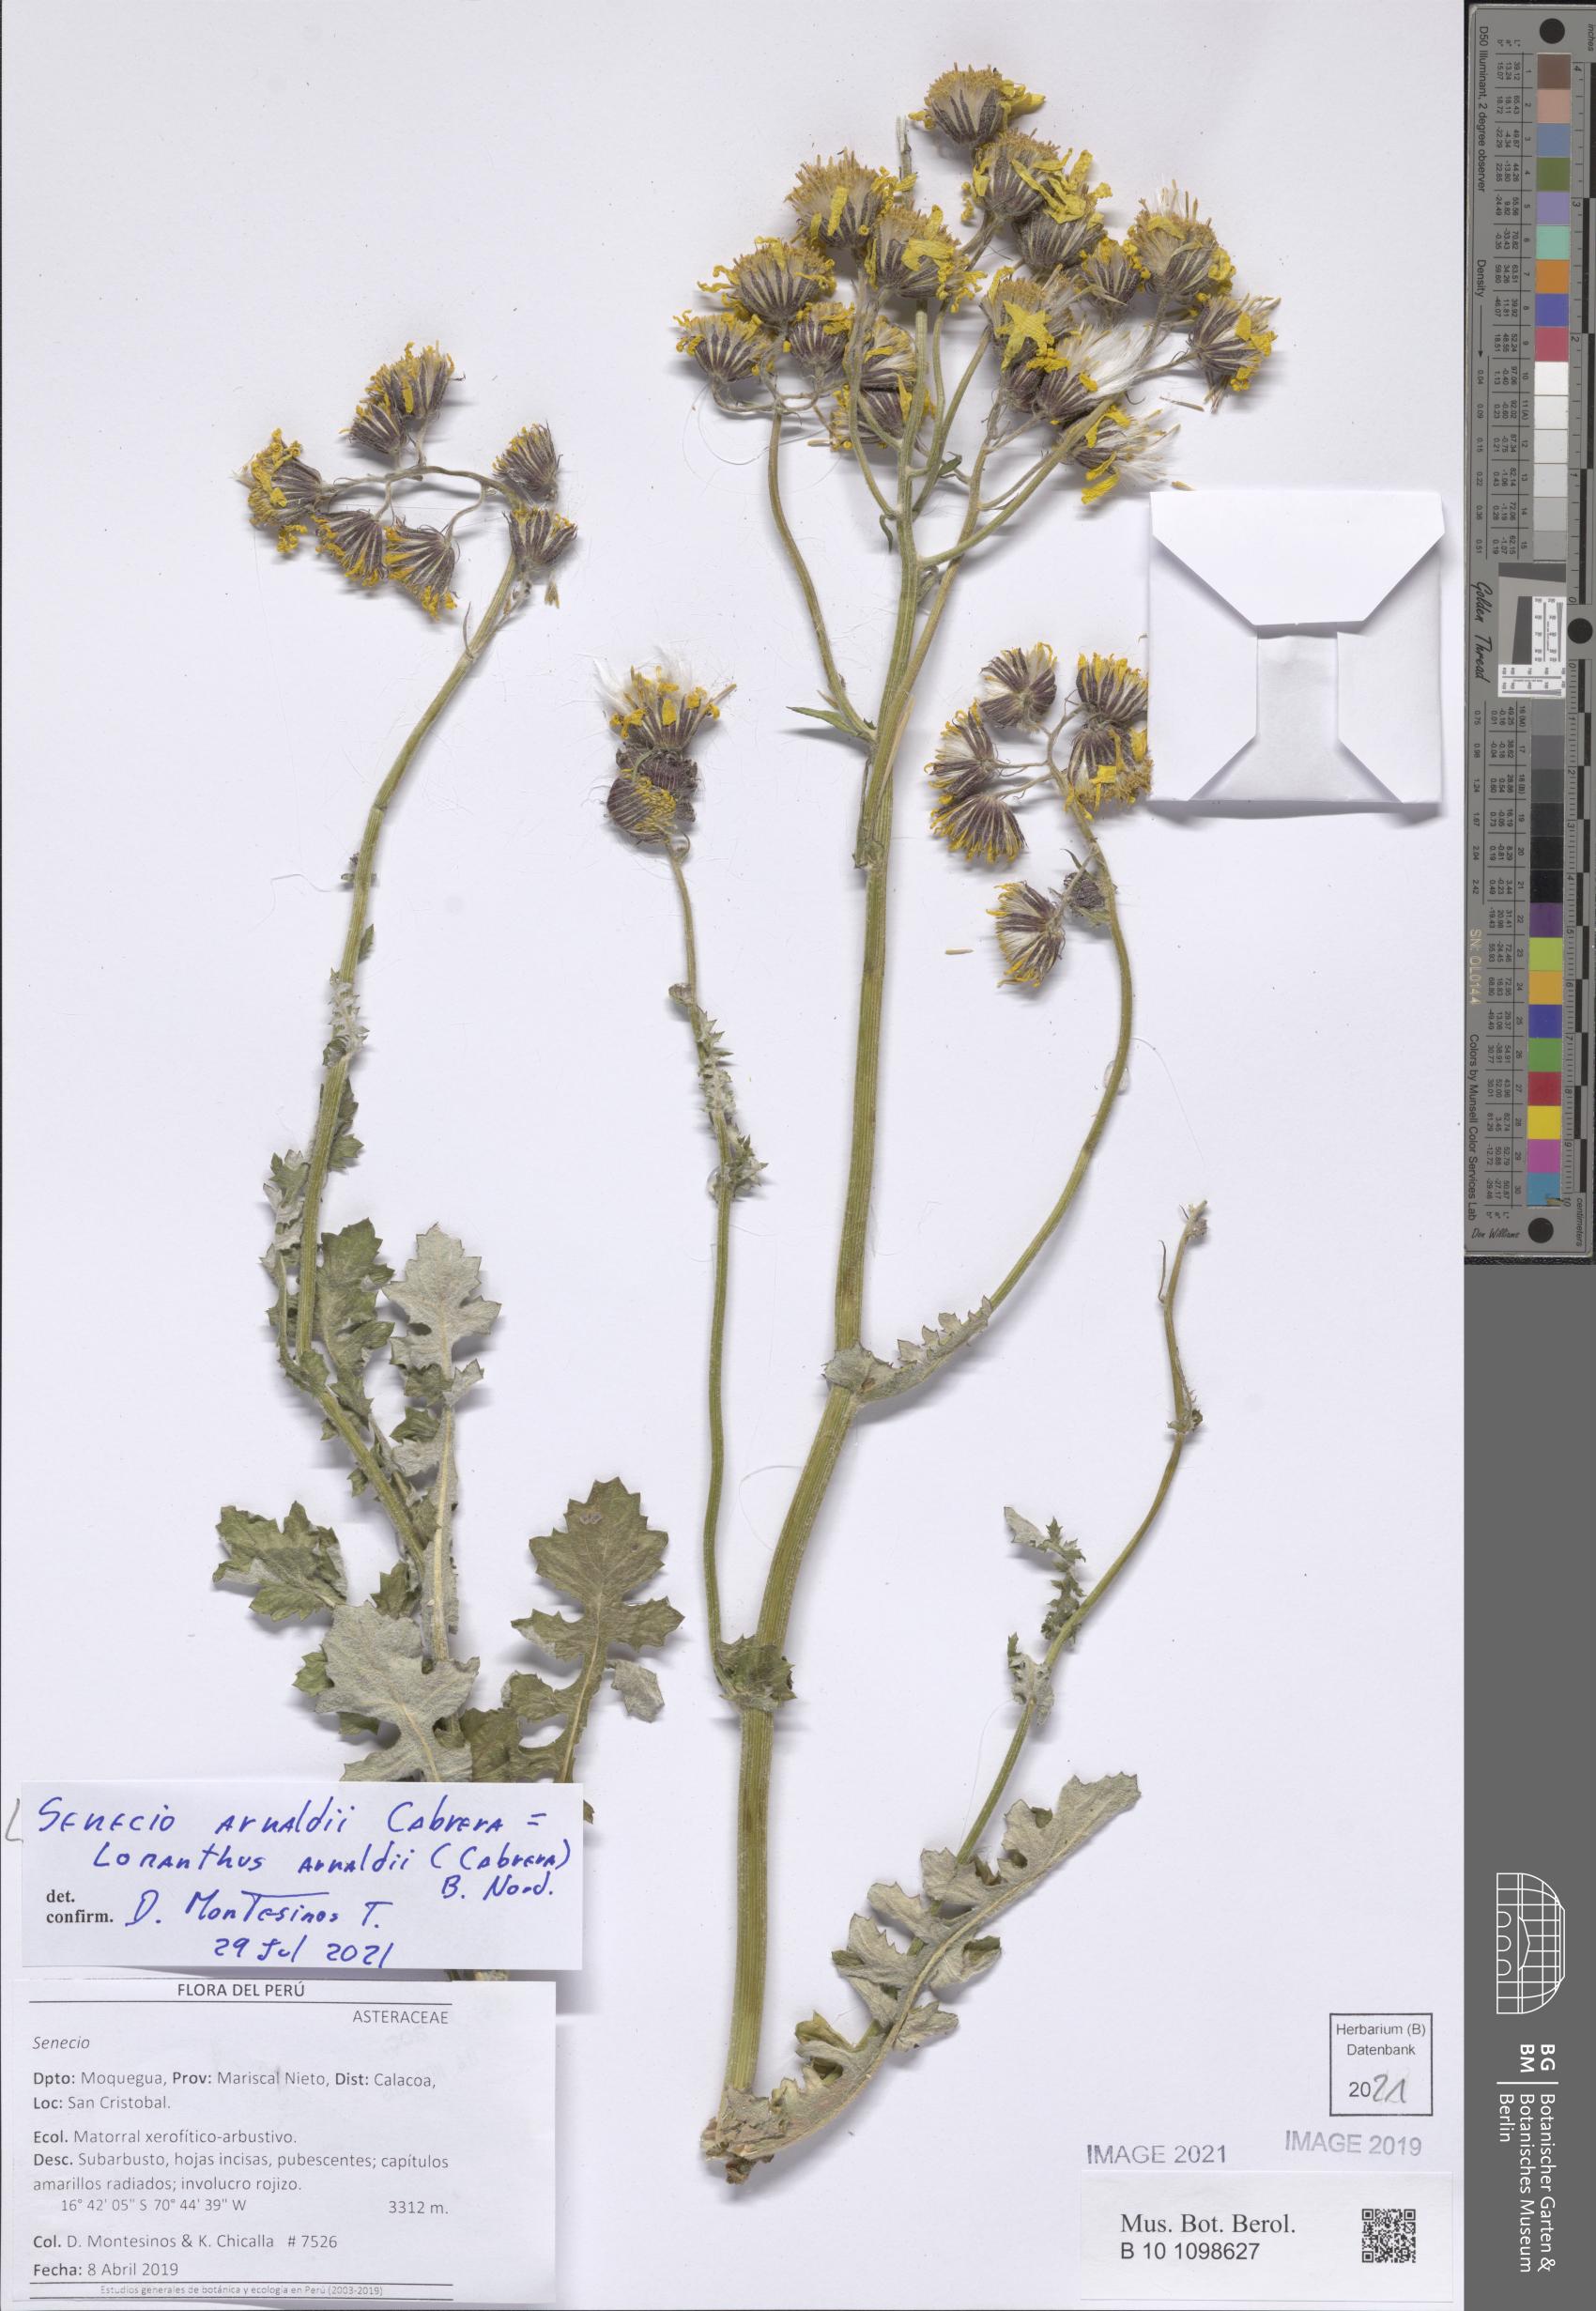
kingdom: Plantae
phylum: Tracheophyta
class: Magnoliopsida
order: Asterales
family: Asteraceae
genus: Lomanthus
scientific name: Lomanthus arnaldii
